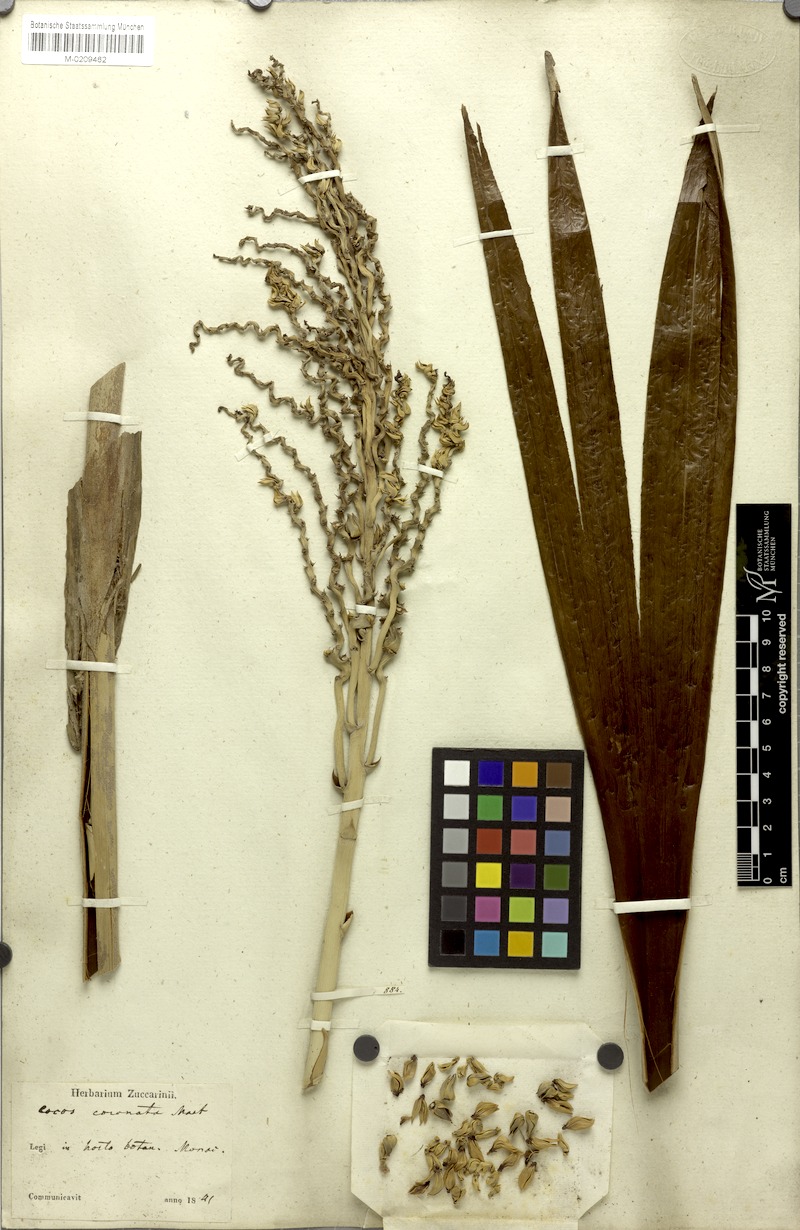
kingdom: Plantae
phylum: Tracheophyta
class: Liliopsida
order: Arecales
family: Arecaceae
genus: Syagrus
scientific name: Syagrus oleracea
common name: Catole palm
